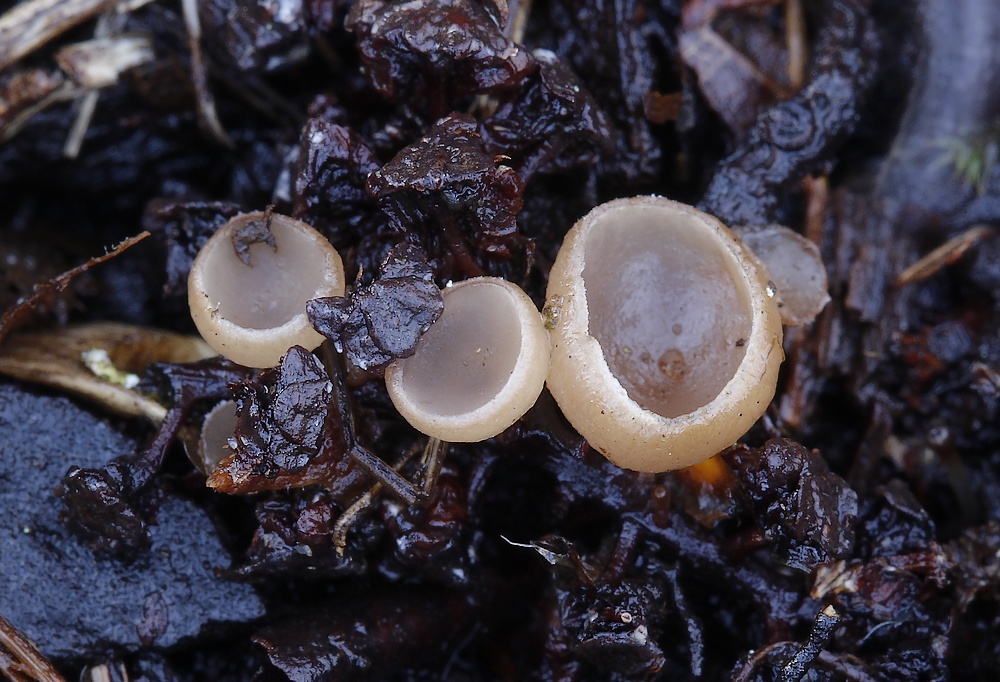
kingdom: Fungi
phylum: Ascomycota
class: Leotiomycetes
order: Helotiales
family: Sclerotiniaceae
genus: Ciboria
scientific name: Ciboria amentacea
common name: ellerakle-knoldskive
